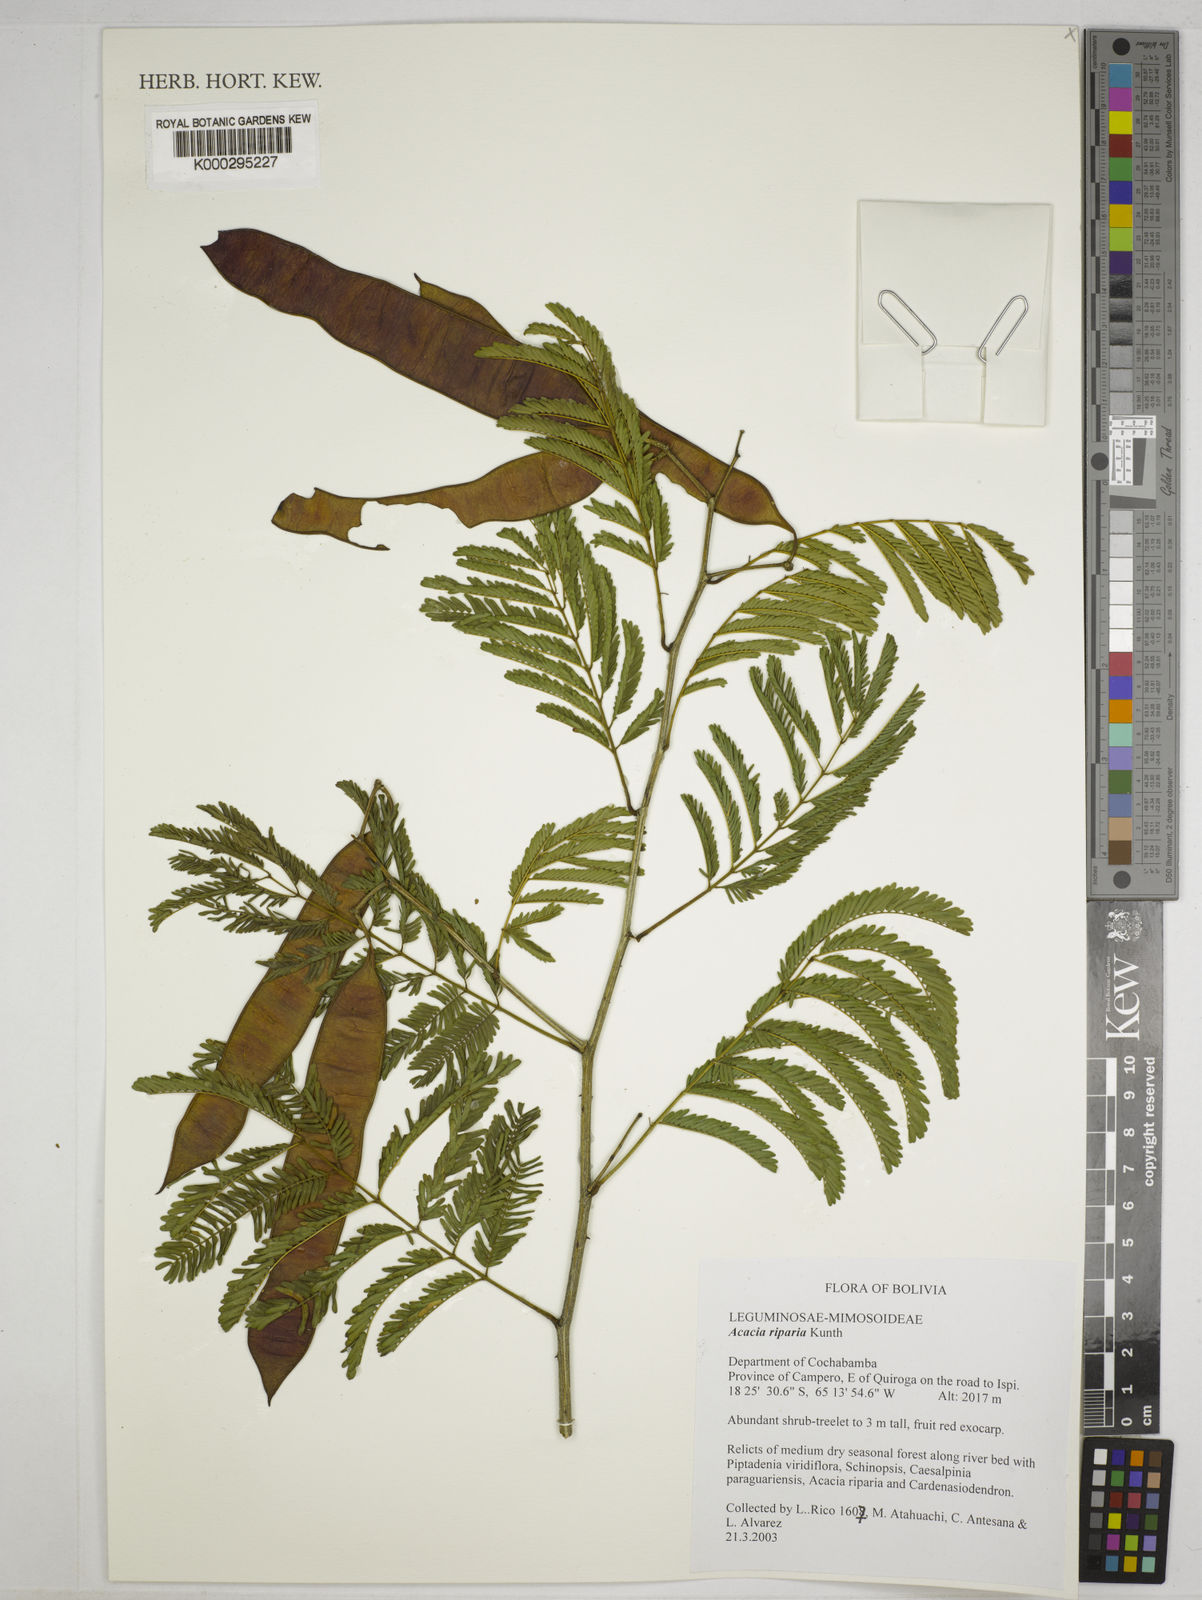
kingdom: Plantae
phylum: Tracheophyta
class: Magnoliopsida
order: Fabales
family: Fabaceae
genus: Senegalia
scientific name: Senegalia riparia
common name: Catch-and-keep
